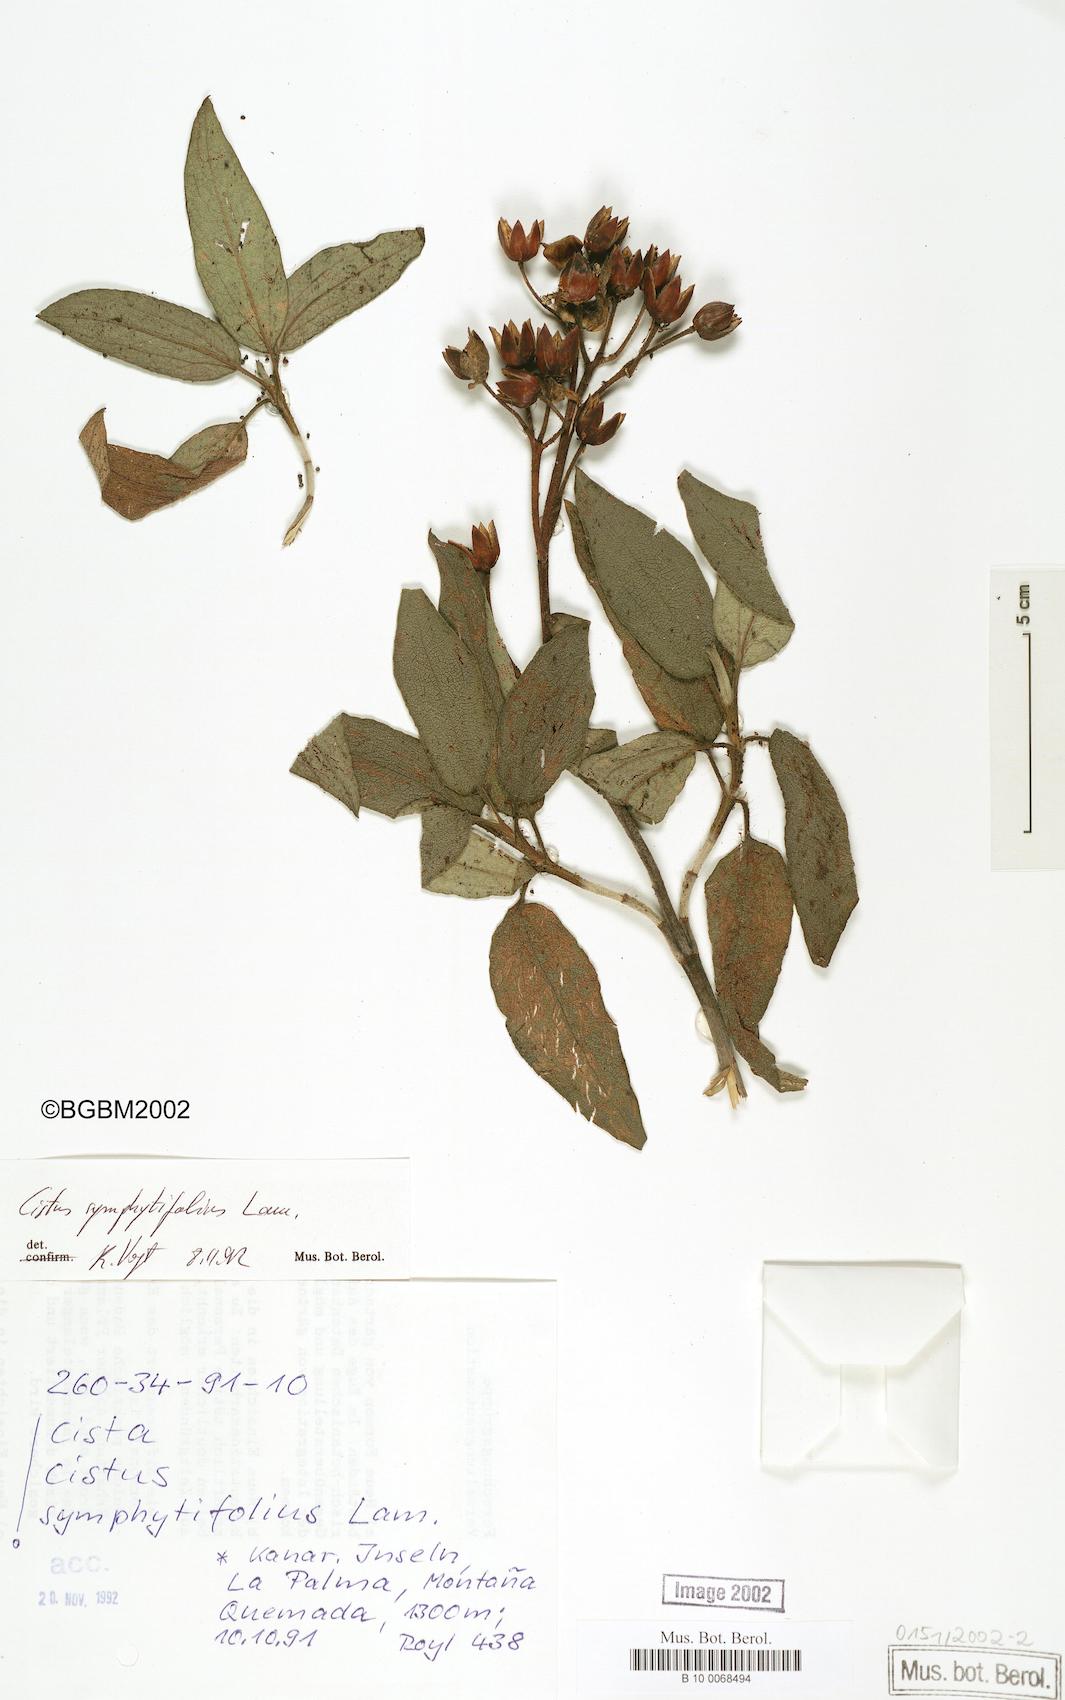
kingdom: Plantae
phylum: Tracheophyta
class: Magnoliopsida
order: Malvales
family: Cistaceae
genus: Cistus
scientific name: Cistus symphytifolius
